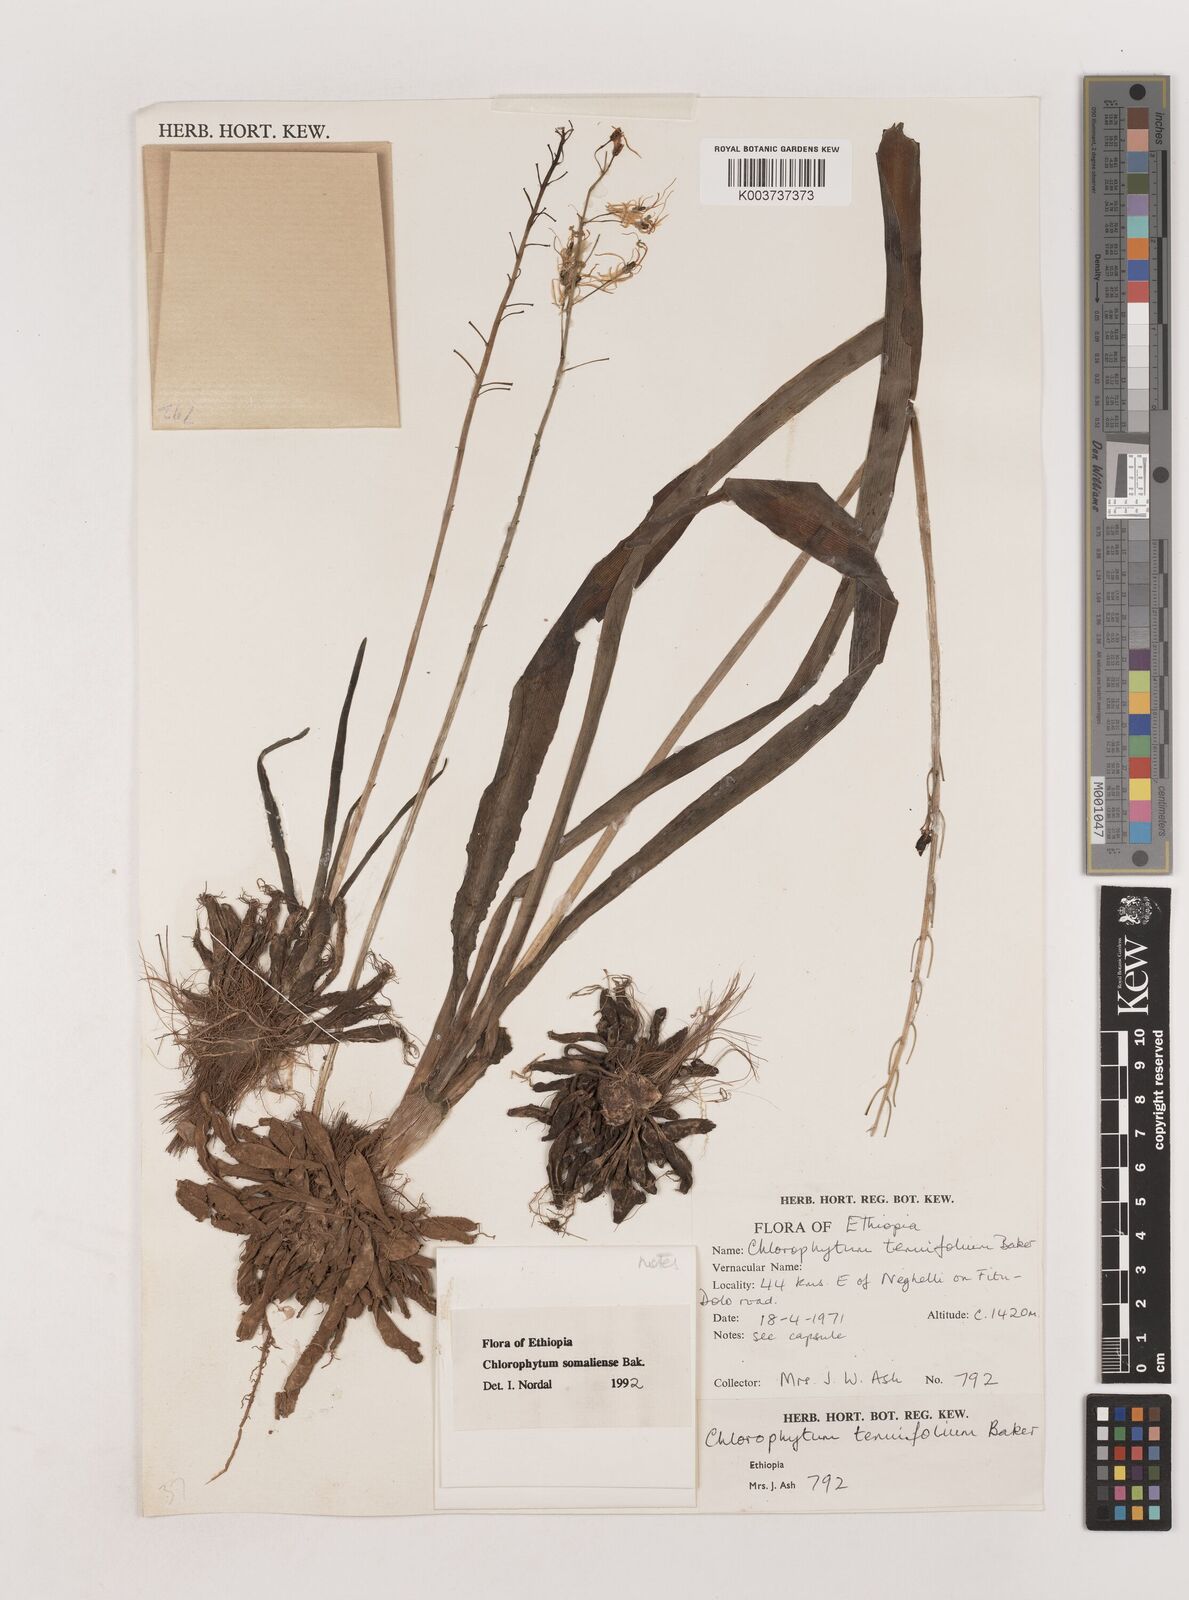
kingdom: Plantae
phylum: Tracheophyta
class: Liliopsida
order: Asparagales
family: Asparagaceae
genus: Chlorophytum
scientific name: Chlorophytum somaliense
